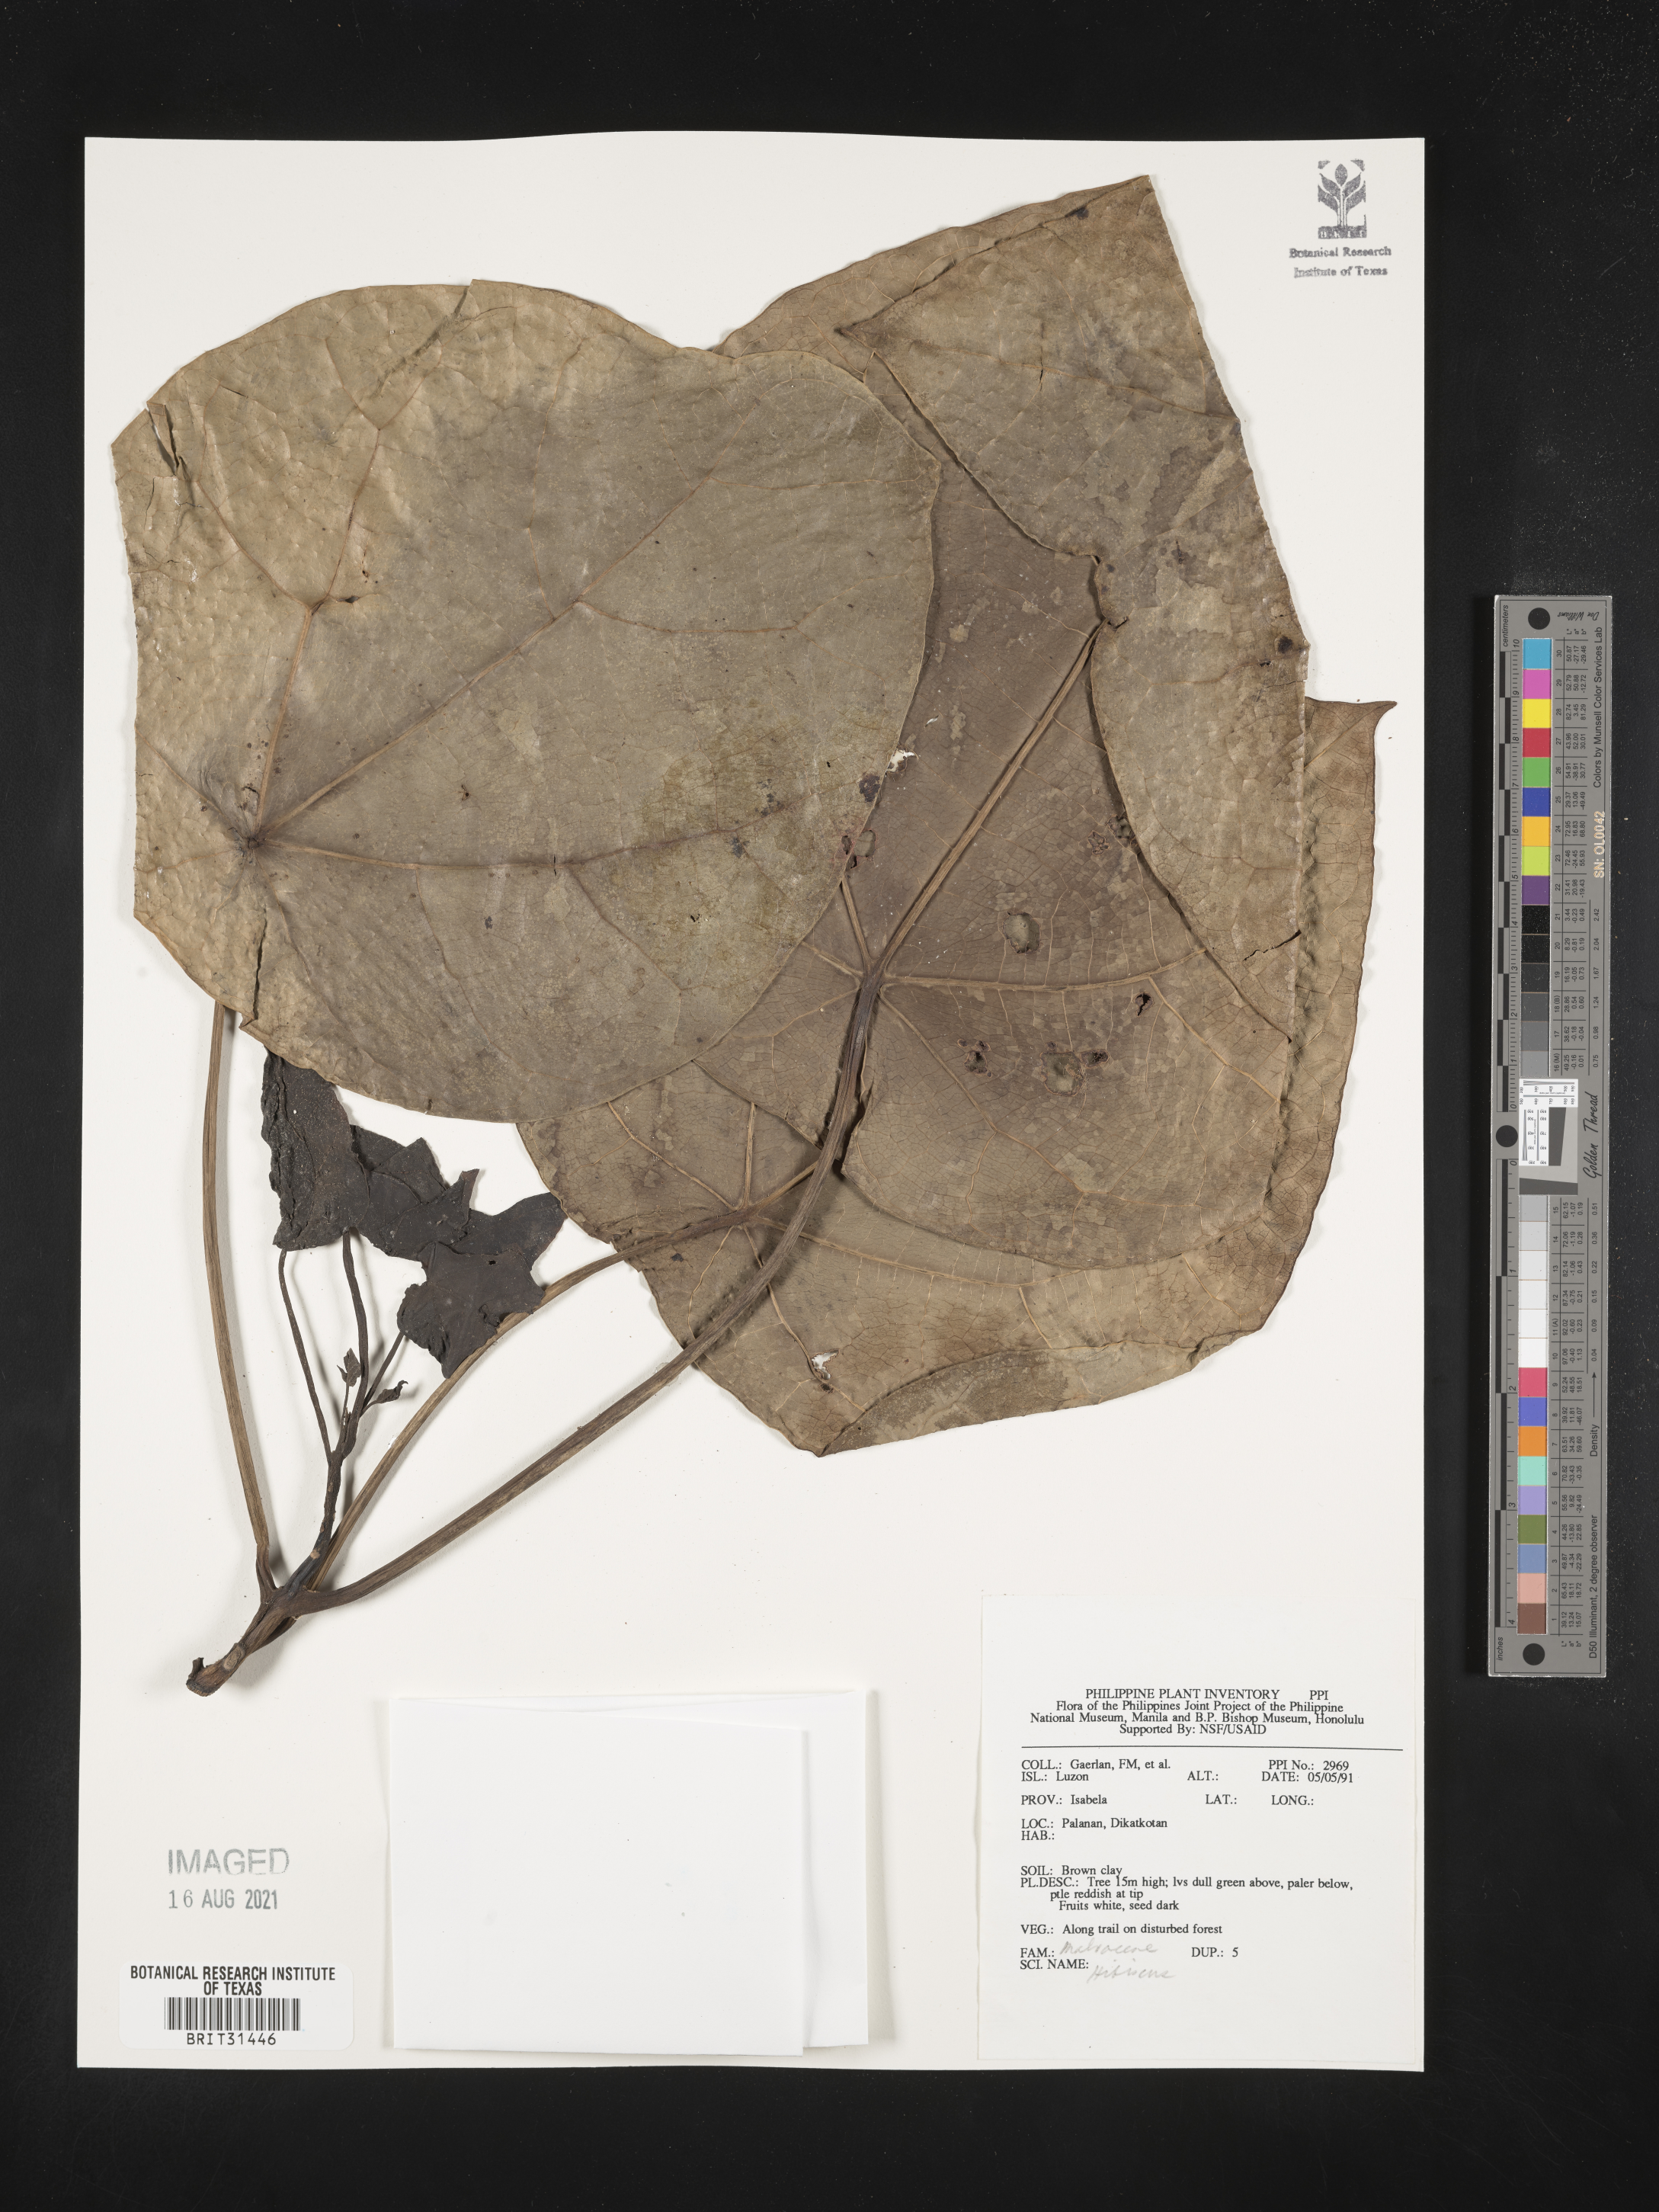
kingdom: Plantae
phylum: Tracheophyta
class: Magnoliopsida
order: Malvales
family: Malvaceae
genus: Hibiscus
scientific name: Hibiscus
